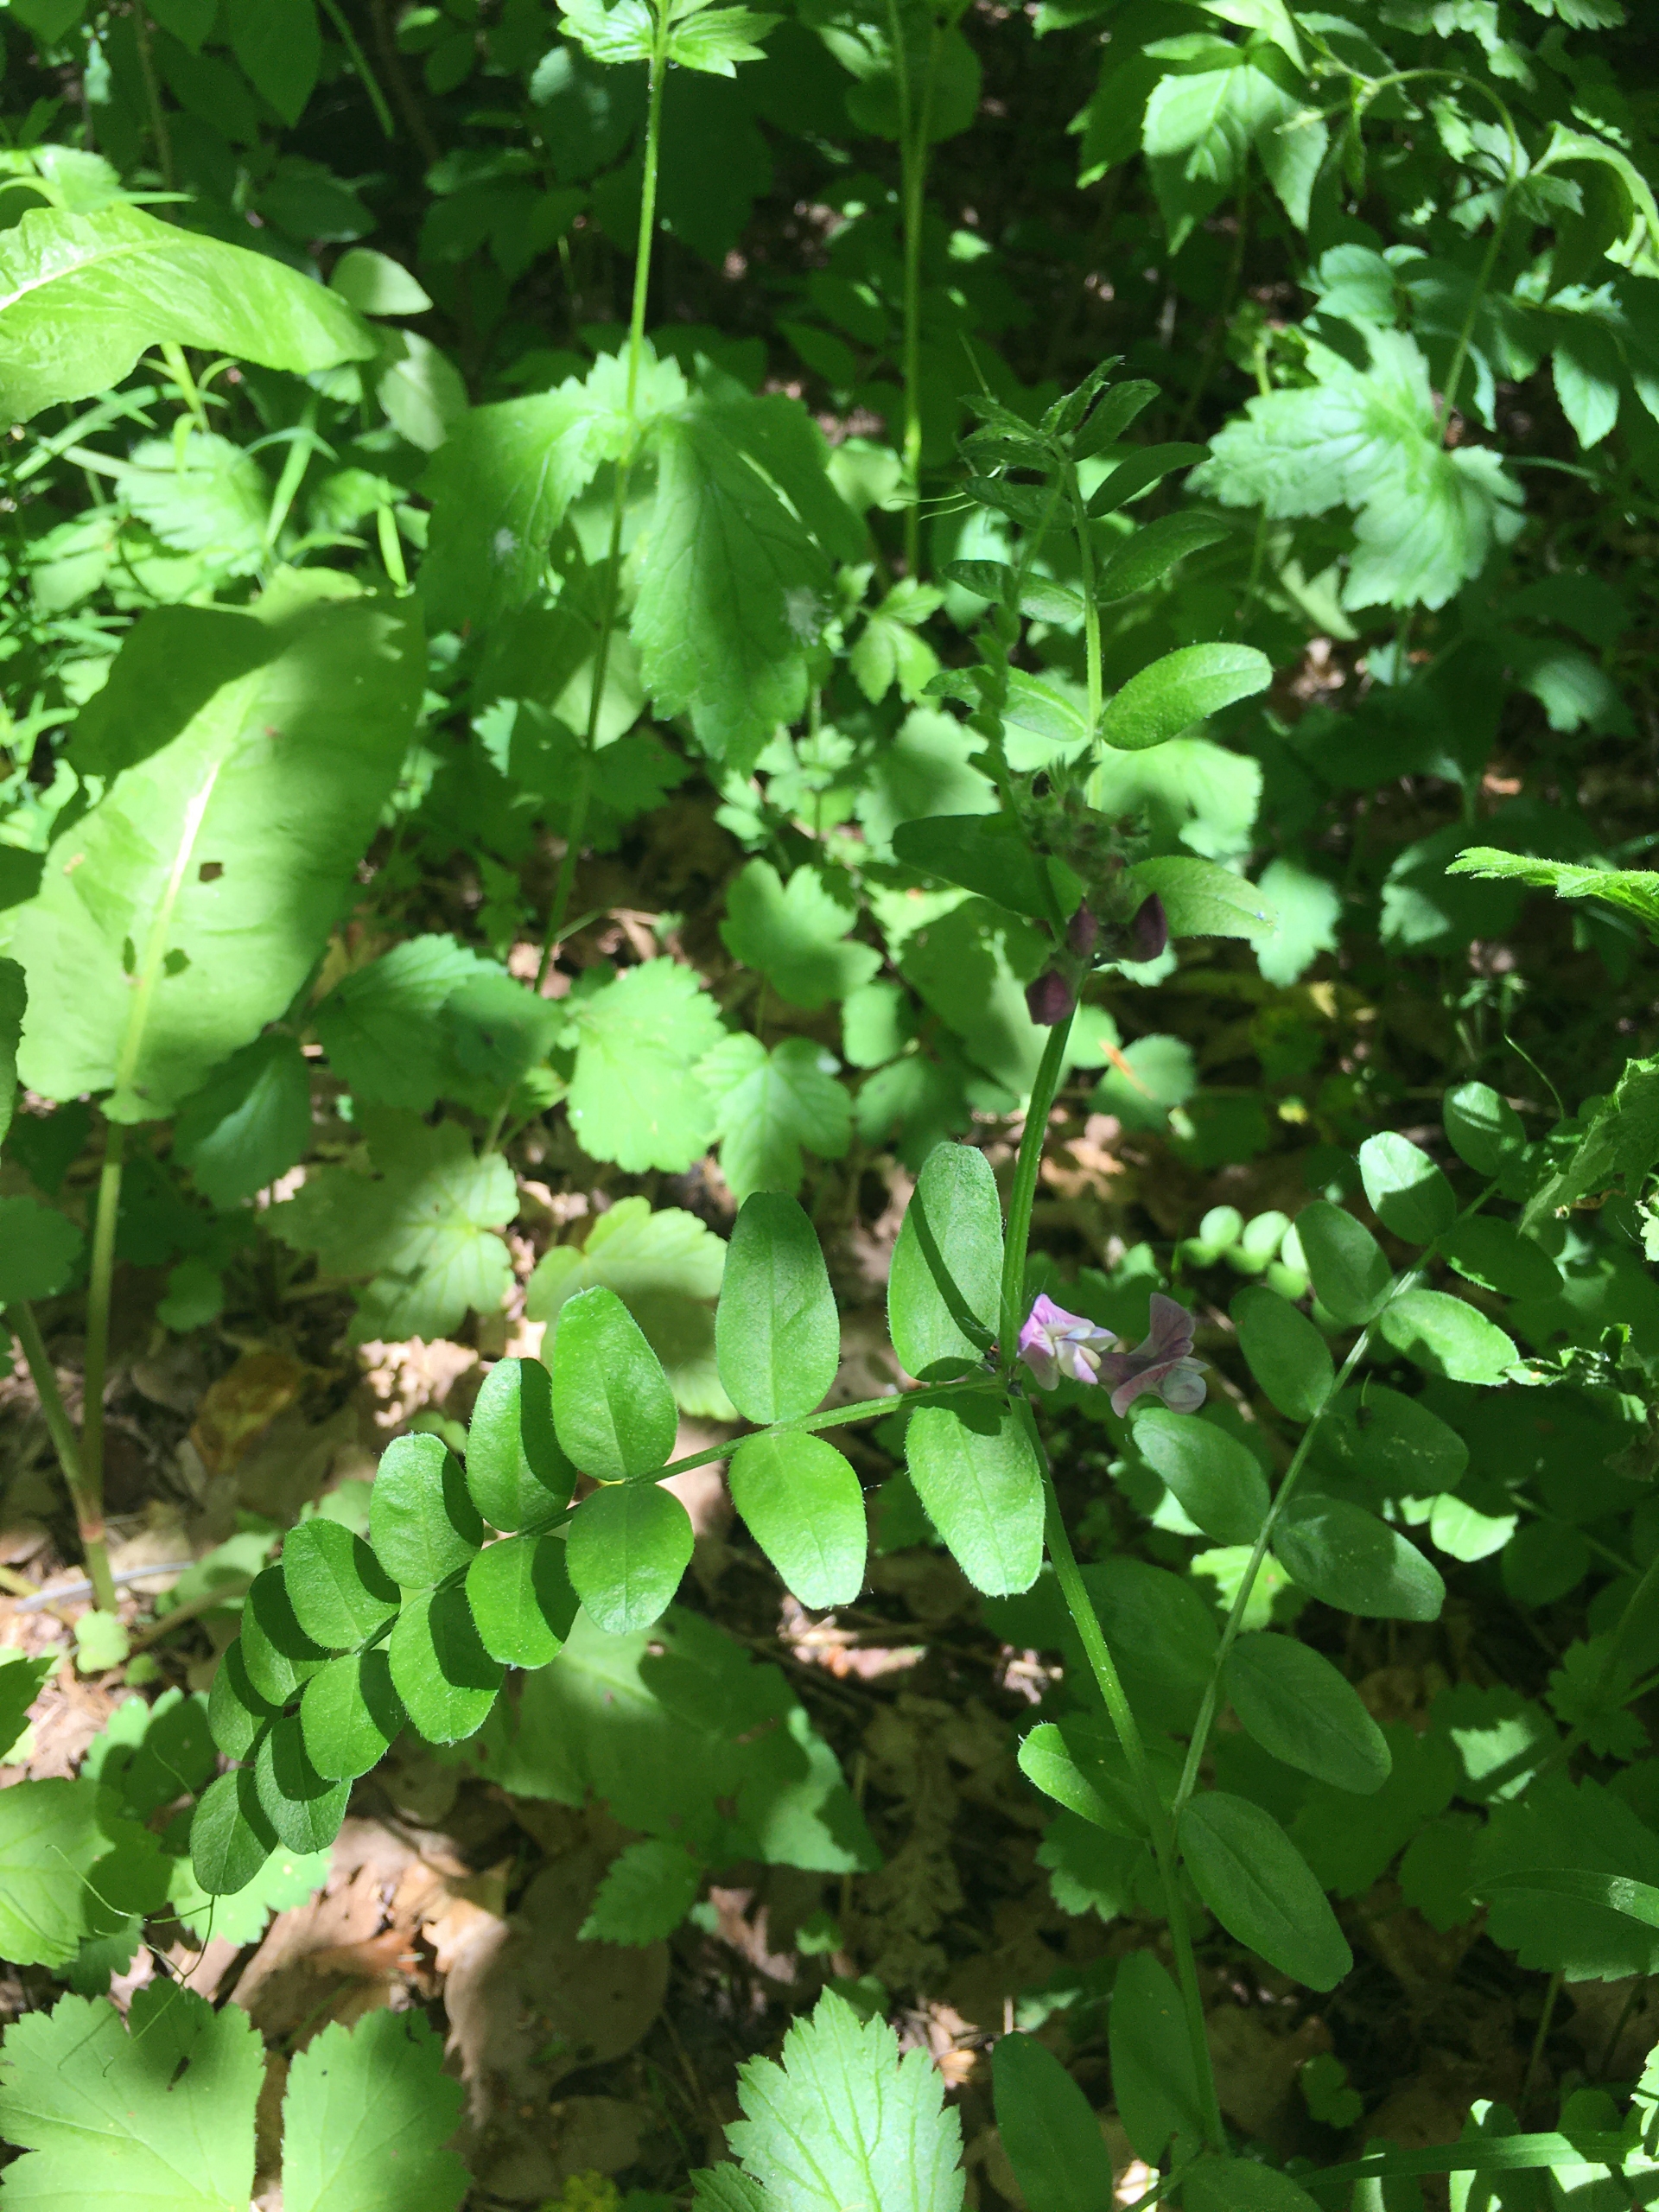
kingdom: Plantae
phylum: Tracheophyta
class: Magnoliopsida
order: Fabales
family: Fabaceae
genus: Vicia
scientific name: Vicia sepium
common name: Gærde-vikke
